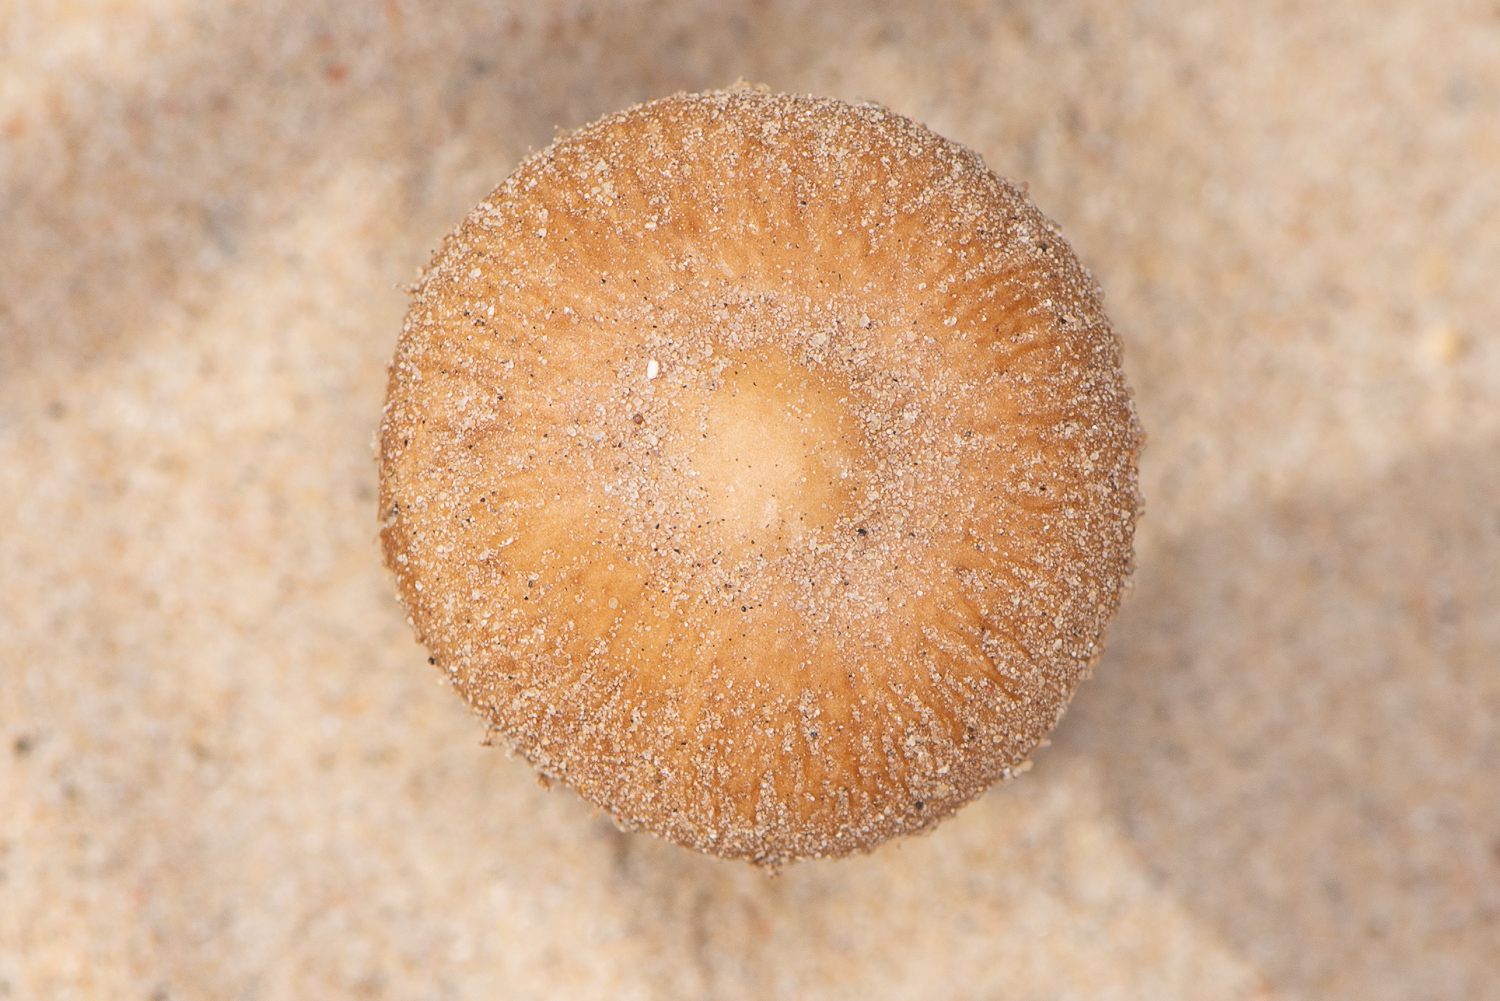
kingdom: Fungi
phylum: Basidiomycota
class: Agaricomycetes
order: Agaricales
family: Psathyrellaceae
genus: Psathyrella
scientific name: Psathyrella ammophila
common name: klit-mørkhat
